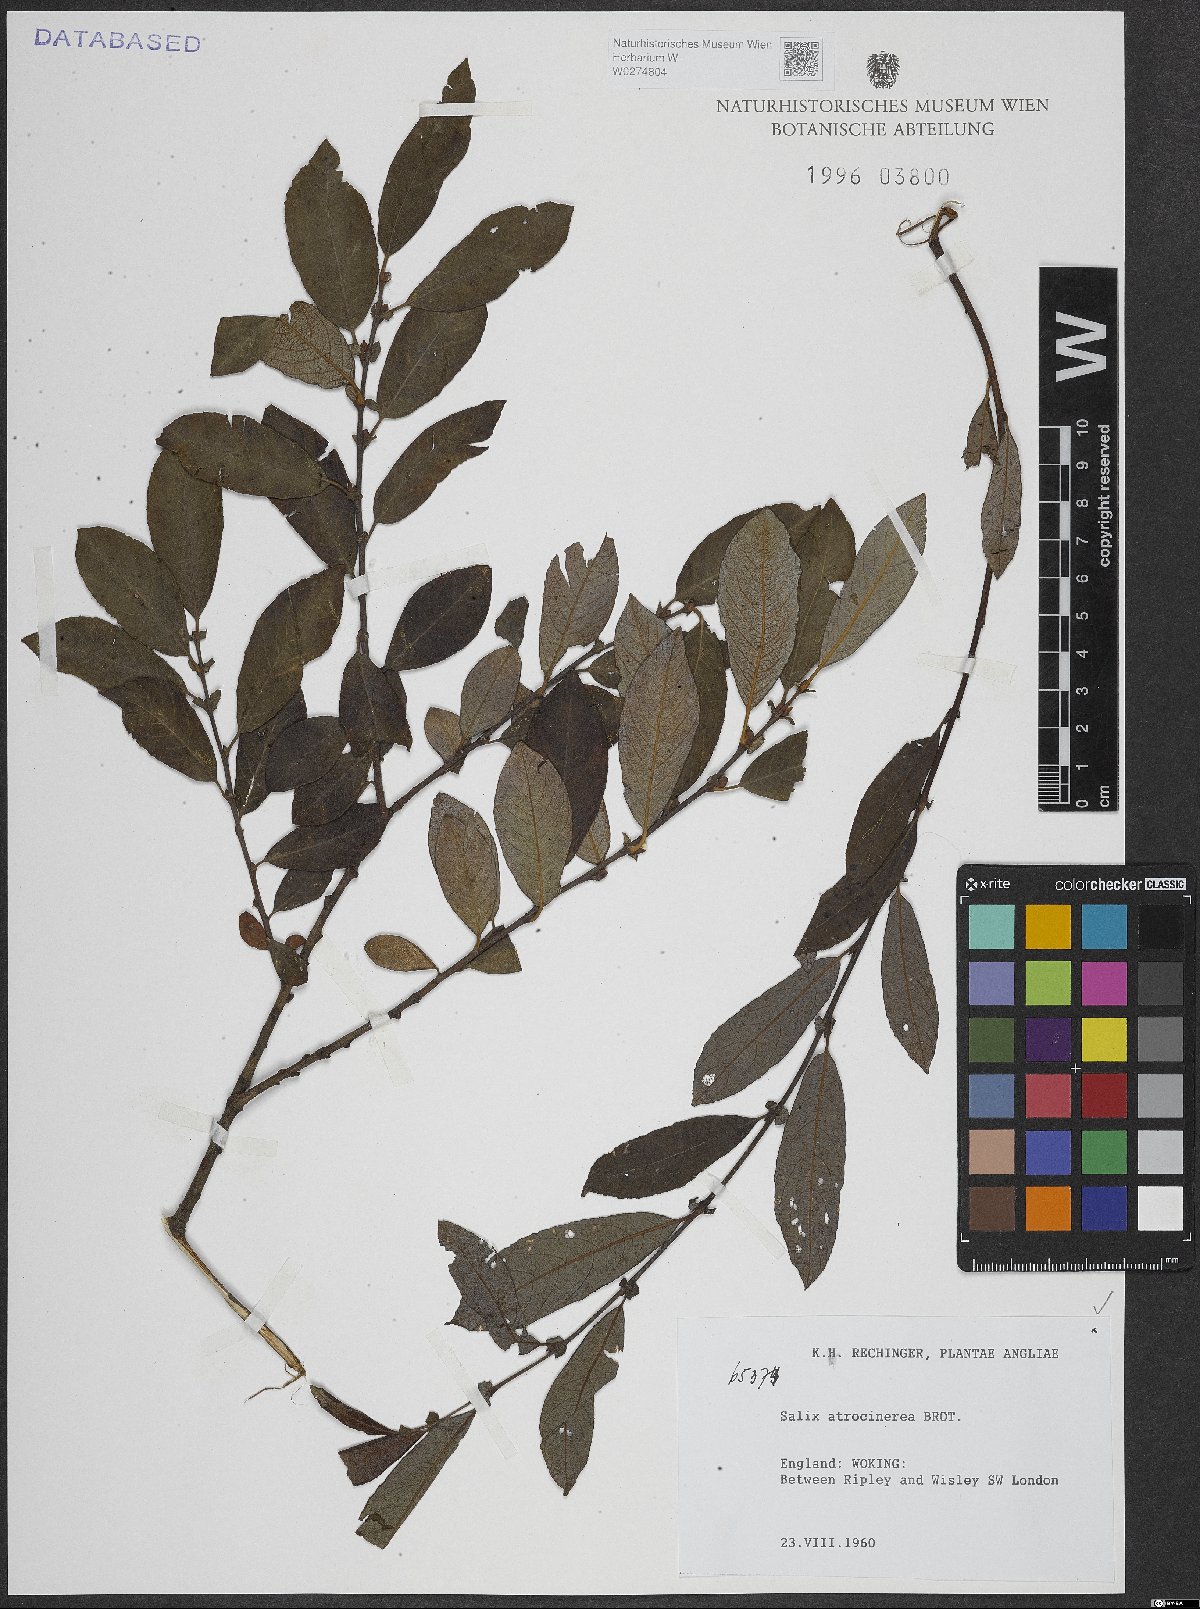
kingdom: Plantae
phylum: Tracheophyta
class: Magnoliopsida
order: Malpighiales
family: Salicaceae
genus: Salix
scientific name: Salix atrocinerea
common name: Rusty willow
